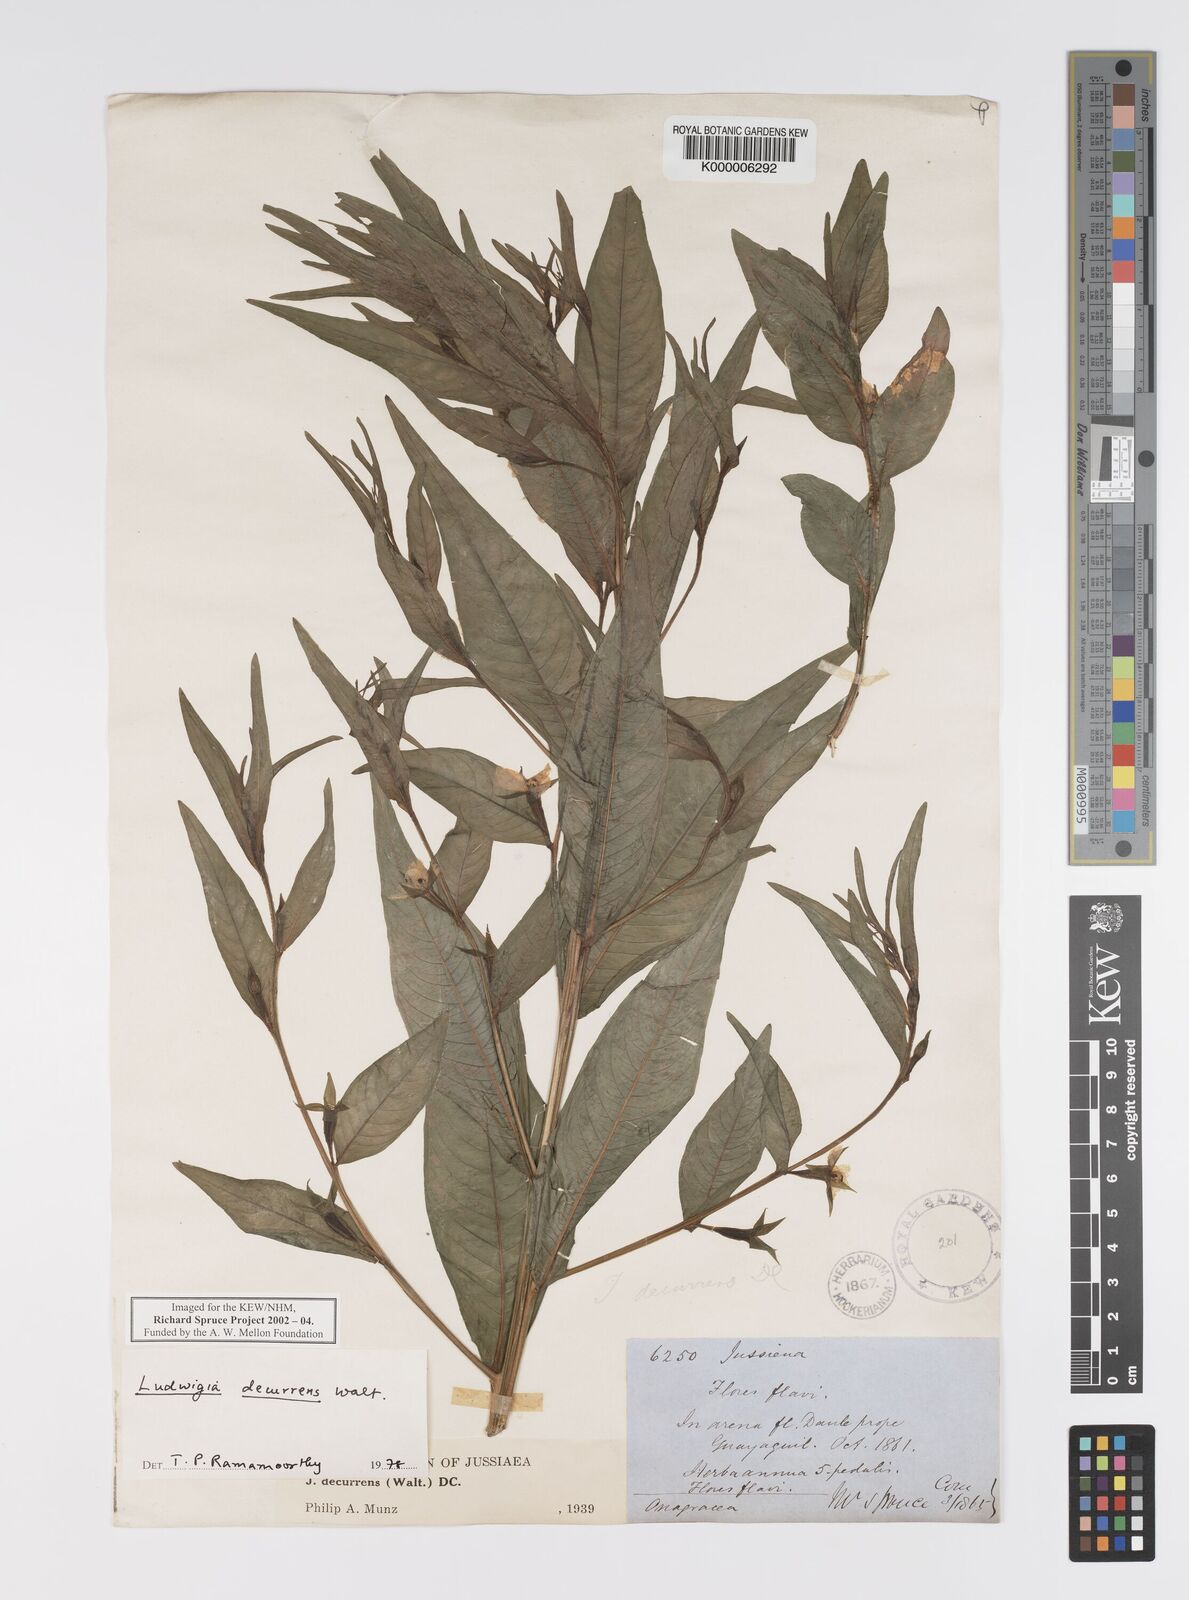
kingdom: Plantae
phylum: Tracheophyta
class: Magnoliopsida
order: Myrtales
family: Onagraceae
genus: Ludwigia
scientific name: Ludwigia decurrens
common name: Winged water-primrose
